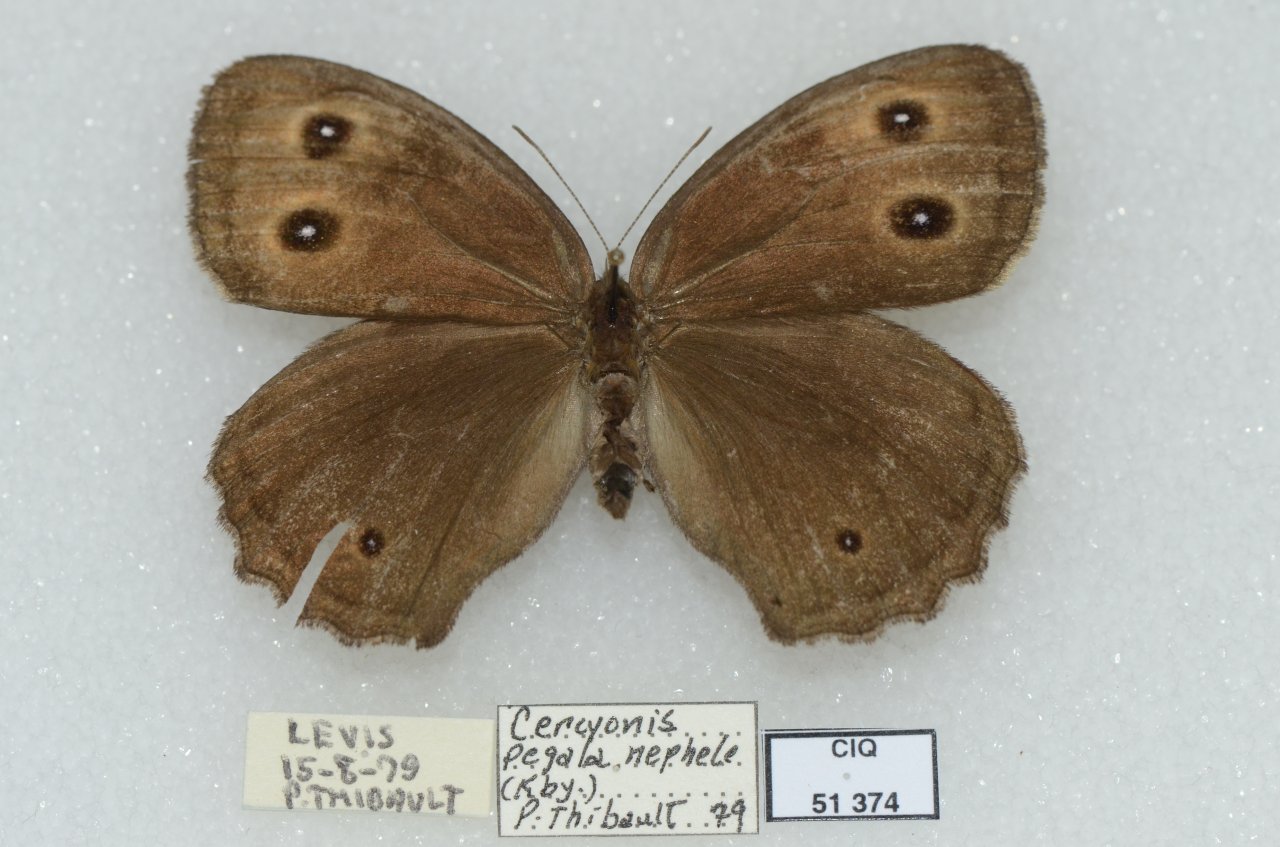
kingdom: Animalia
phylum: Arthropoda
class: Insecta
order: Lepidoptera
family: Nymphalidae
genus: Cercyonis
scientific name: Cercyonis pegala
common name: Common Wood-Nymph
